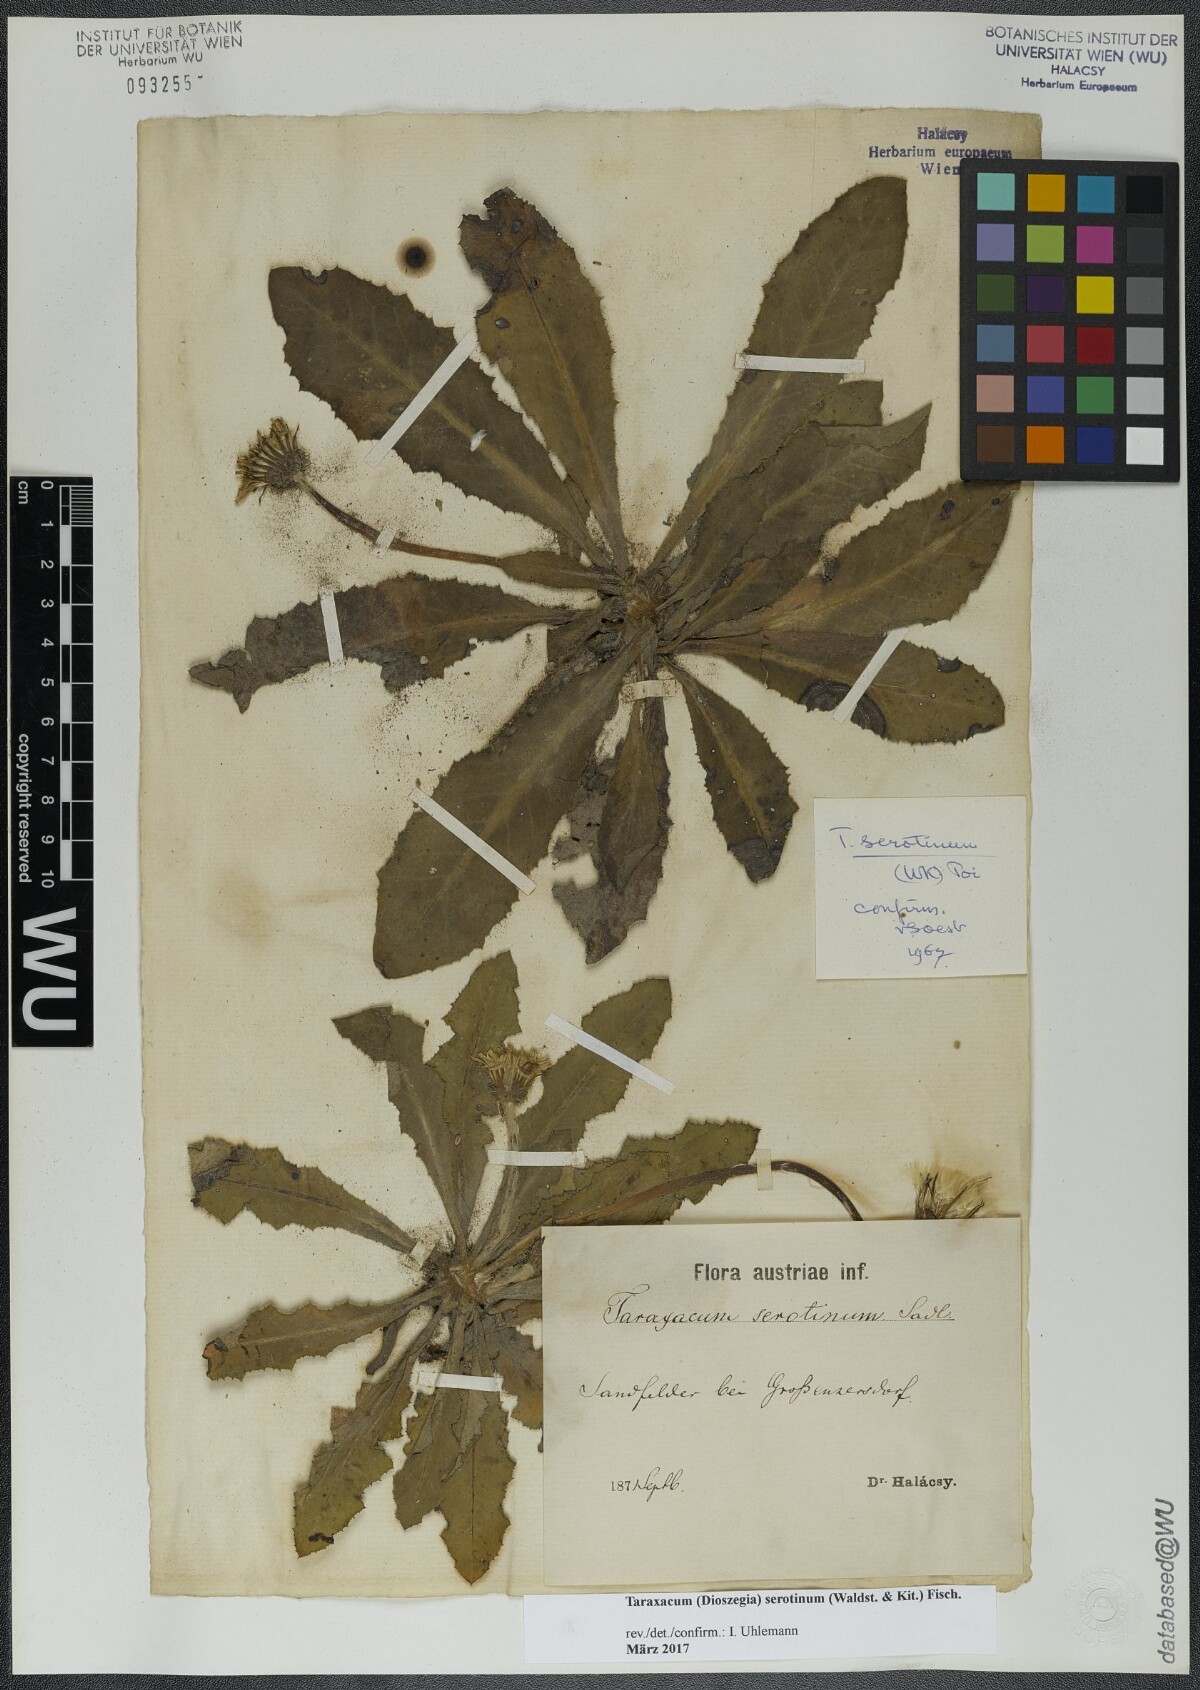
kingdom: Plantae
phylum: Tracheophyta
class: Magnoliopsida
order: Asterales
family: Asteraceae
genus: Taraxacum
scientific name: Taraxacum serotinum
